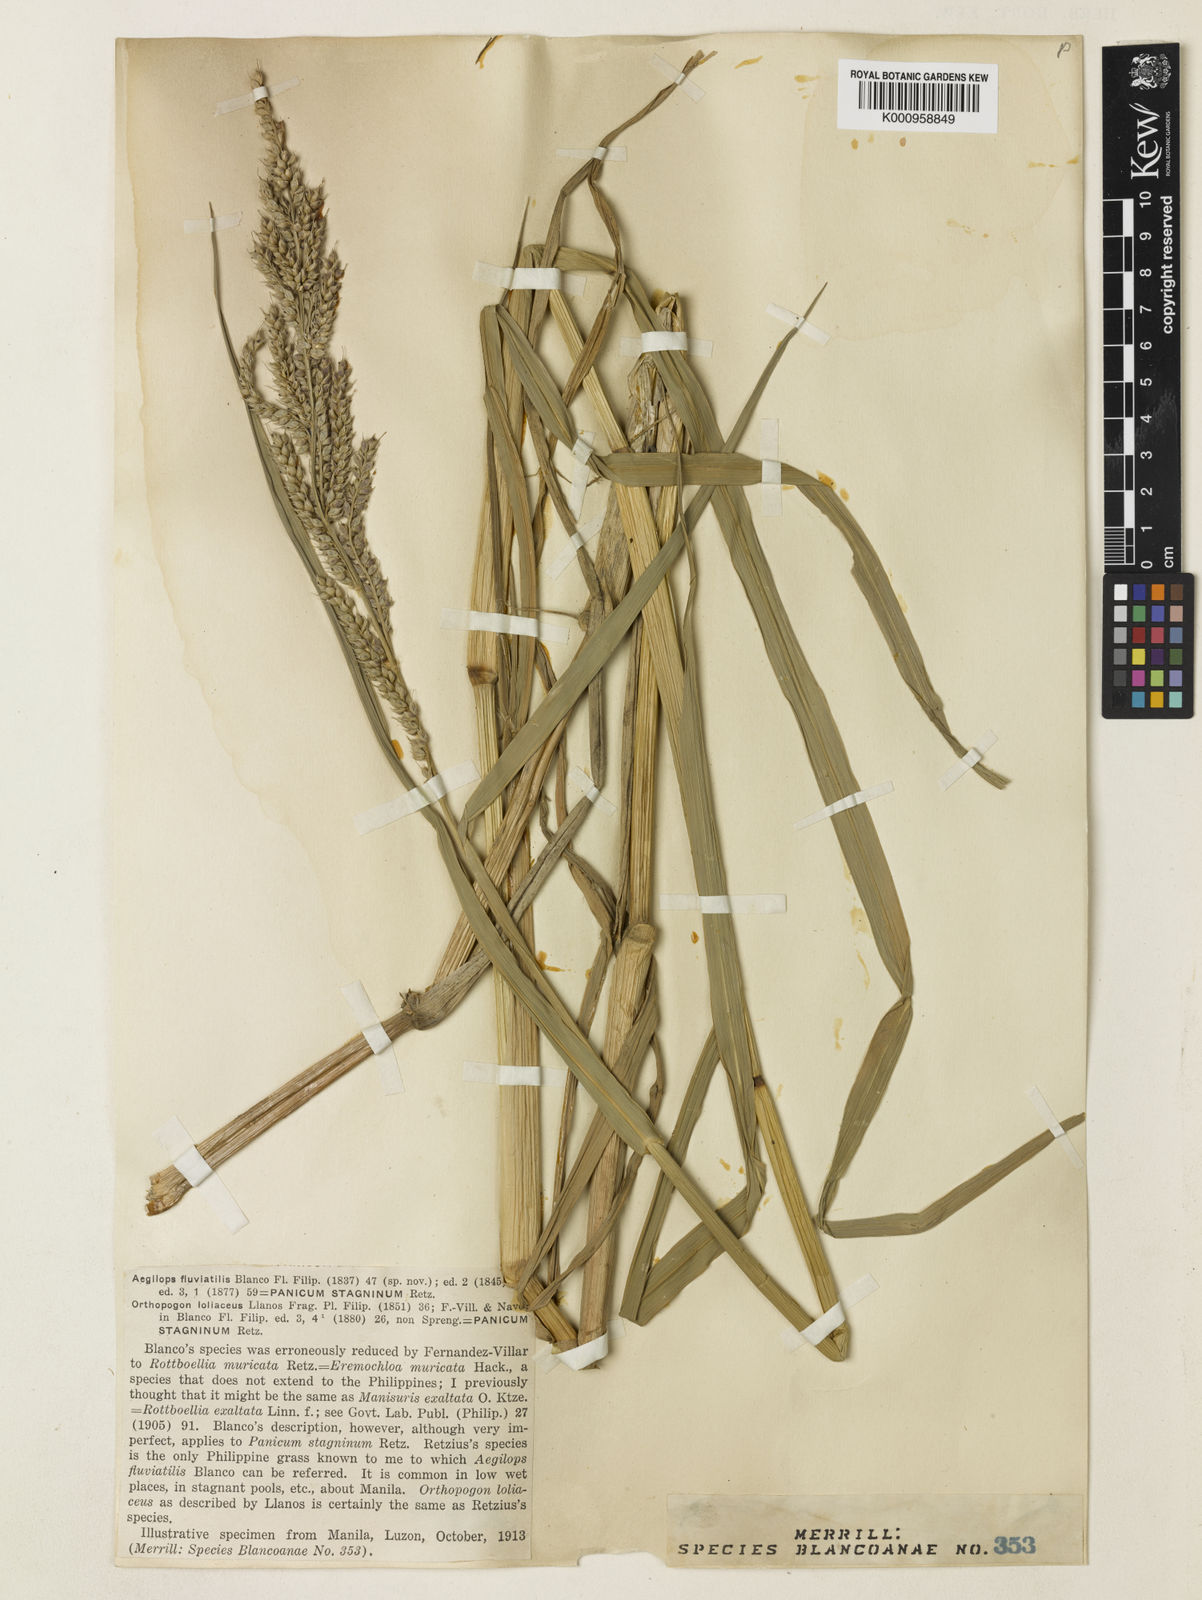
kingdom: Plantae
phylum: Tracheophyta
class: Liliopsida
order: Poales
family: Poaceae
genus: Echinochloa
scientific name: Echinochloa stagnina
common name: Burgu grass
